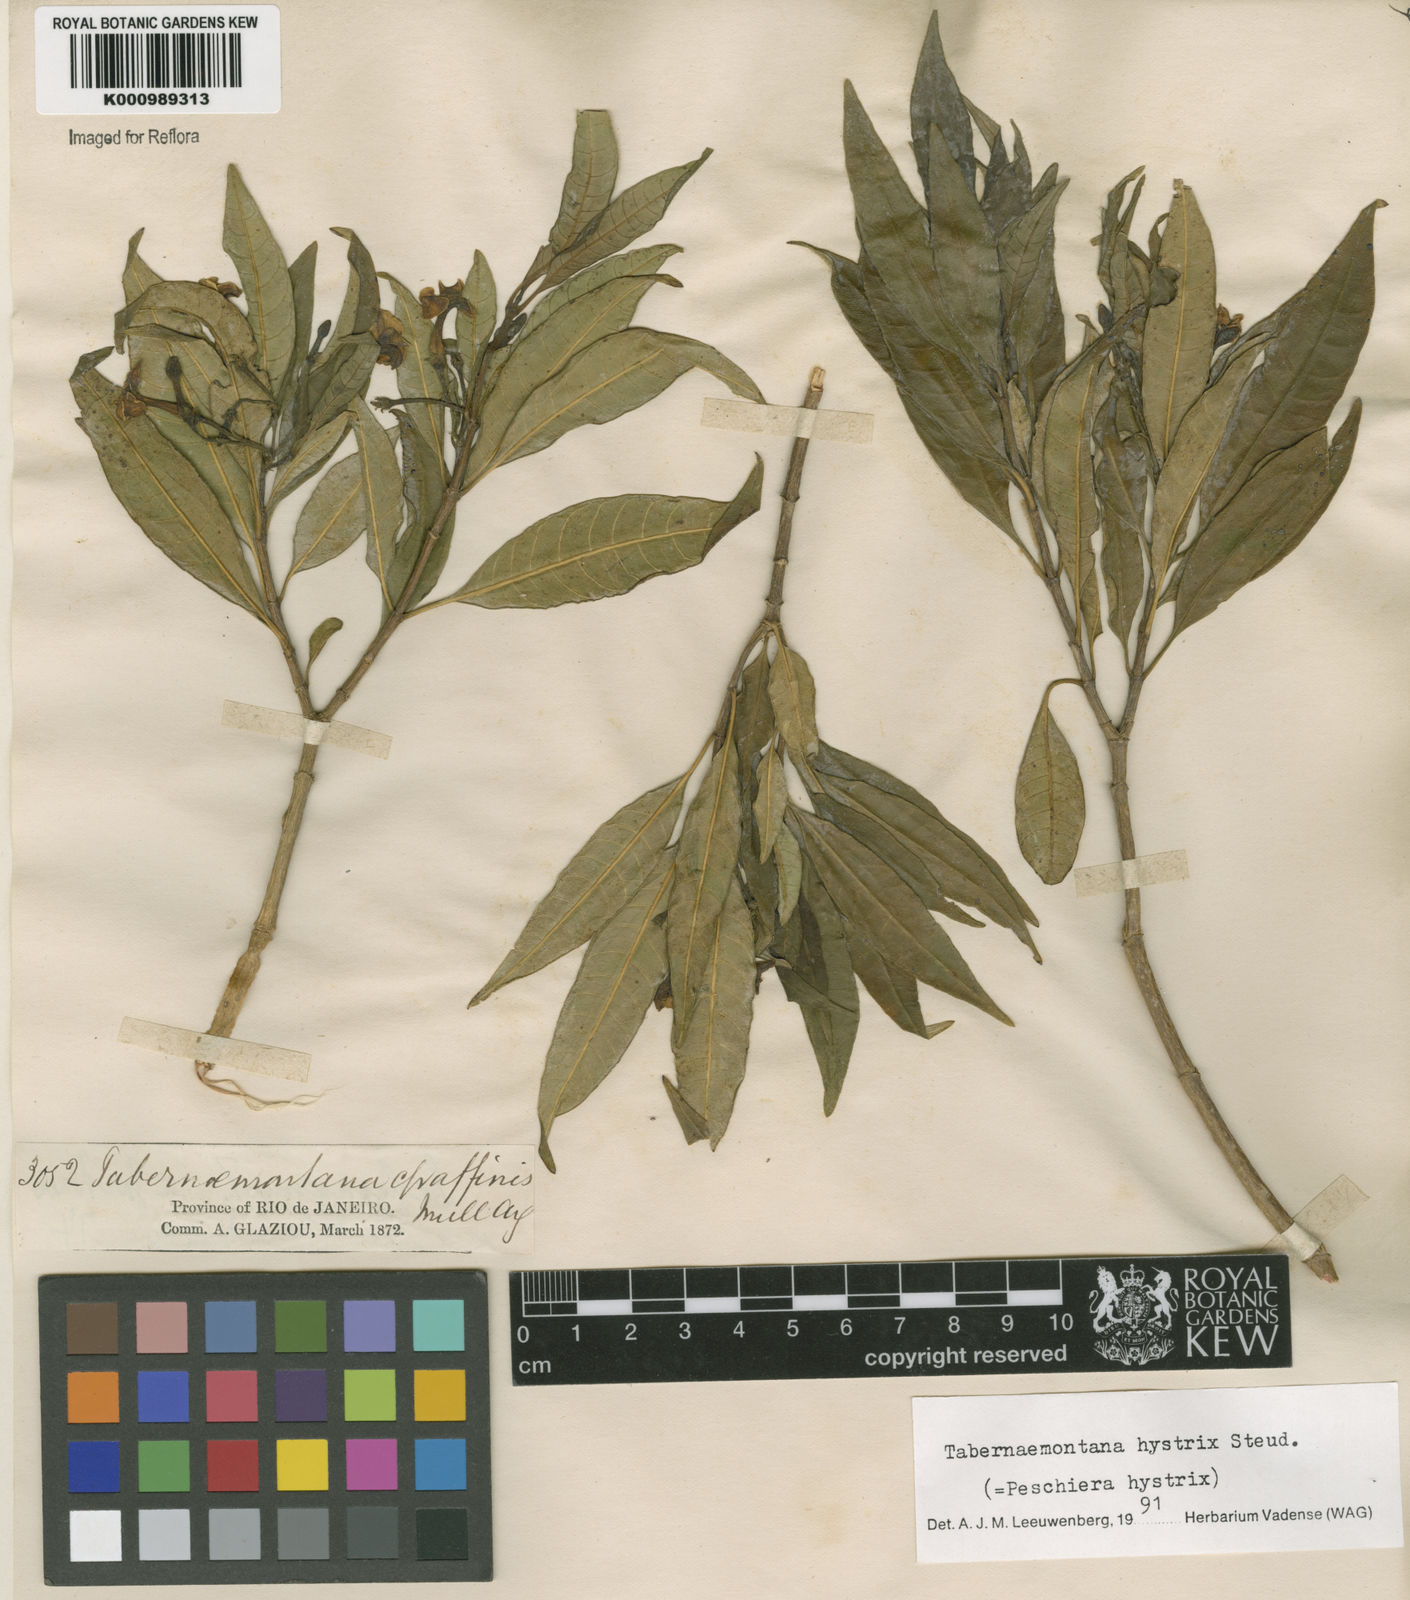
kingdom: Plantae
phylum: Tracheophyta
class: Magnoliopsida
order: Gentianales
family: Apocynaceae
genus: Tabernaemontana
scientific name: Tabernaemontana hystrix
